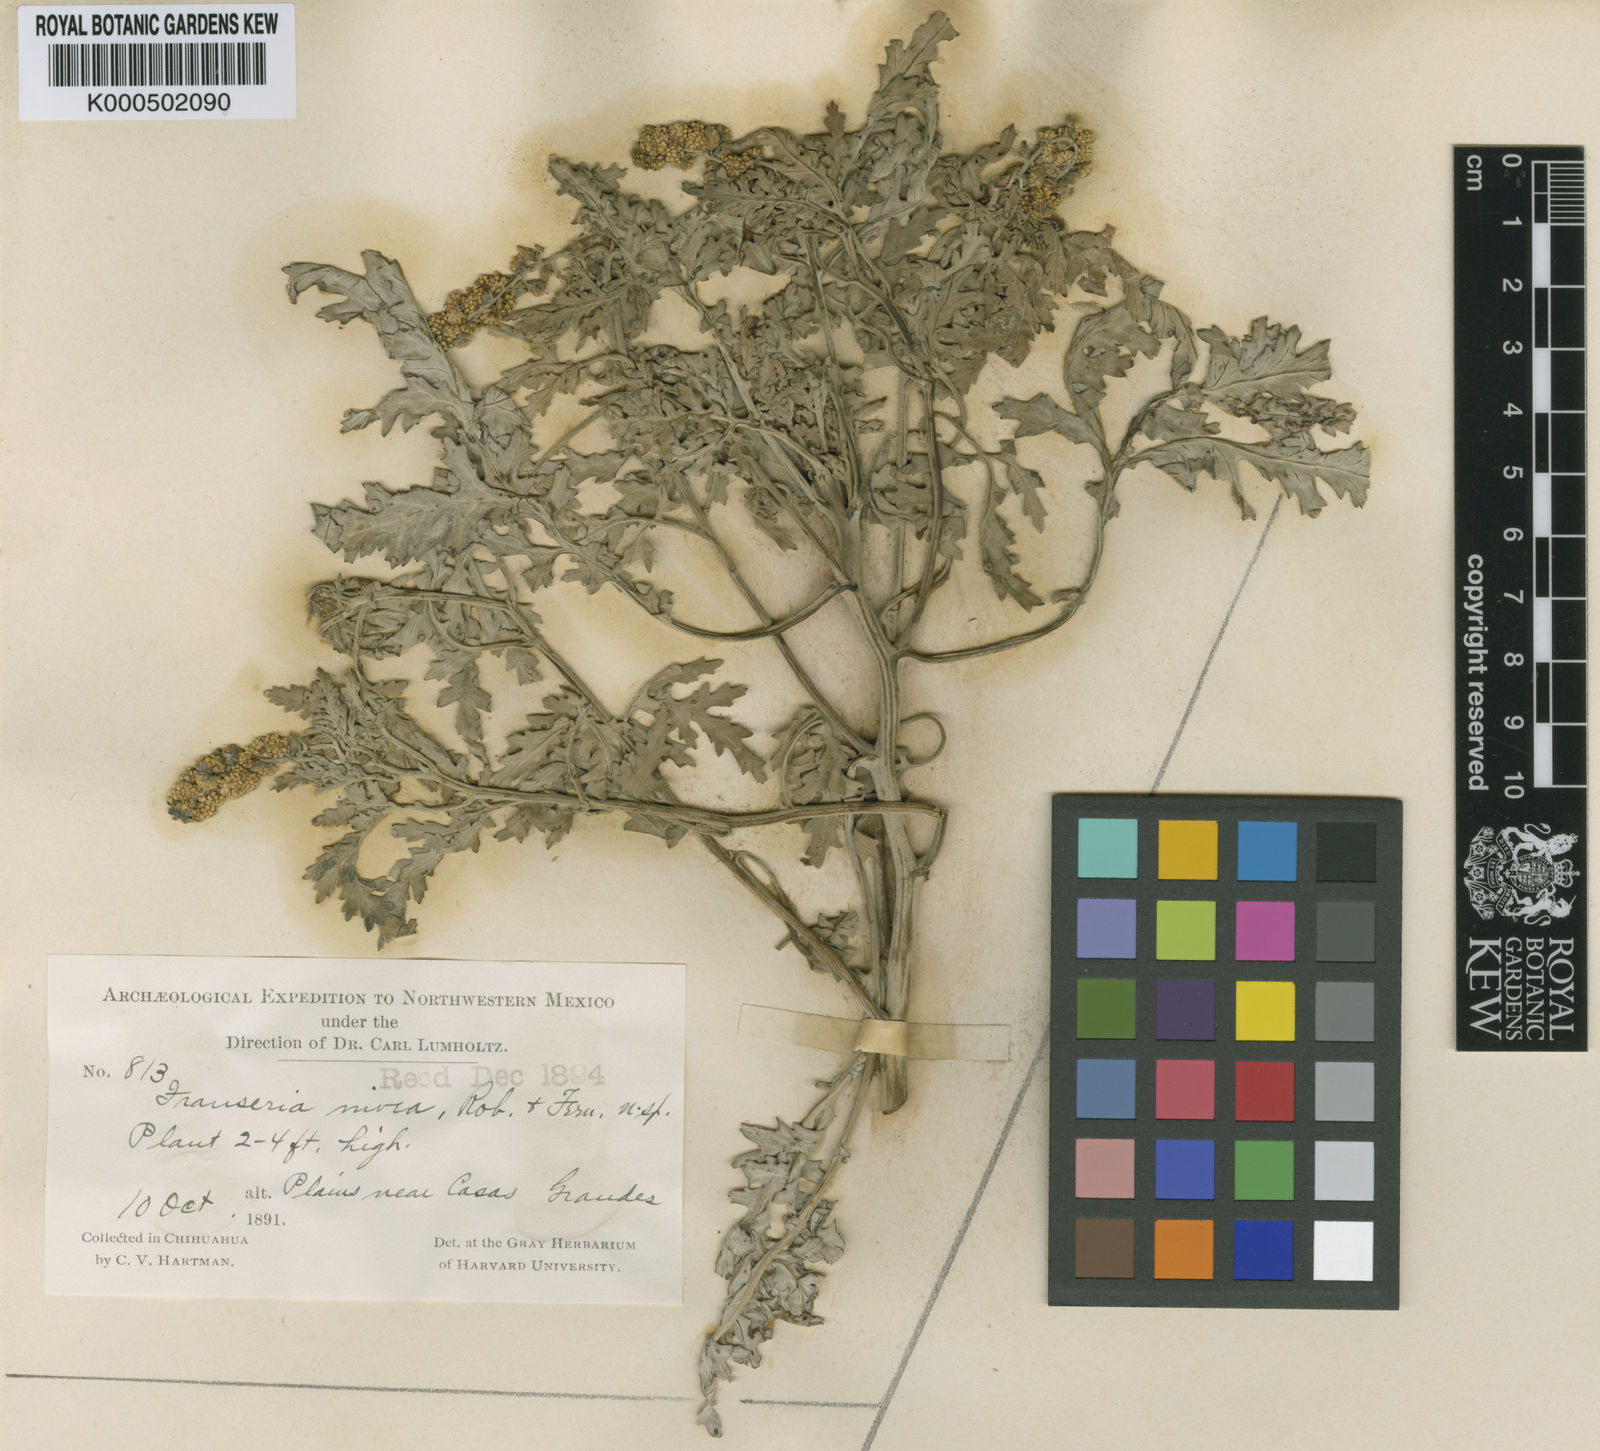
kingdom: Plantae
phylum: Tracheophyta
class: Magnoliopsida
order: Asterales
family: Asteraceae
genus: Ambrosia
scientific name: Ambrosia nivea
